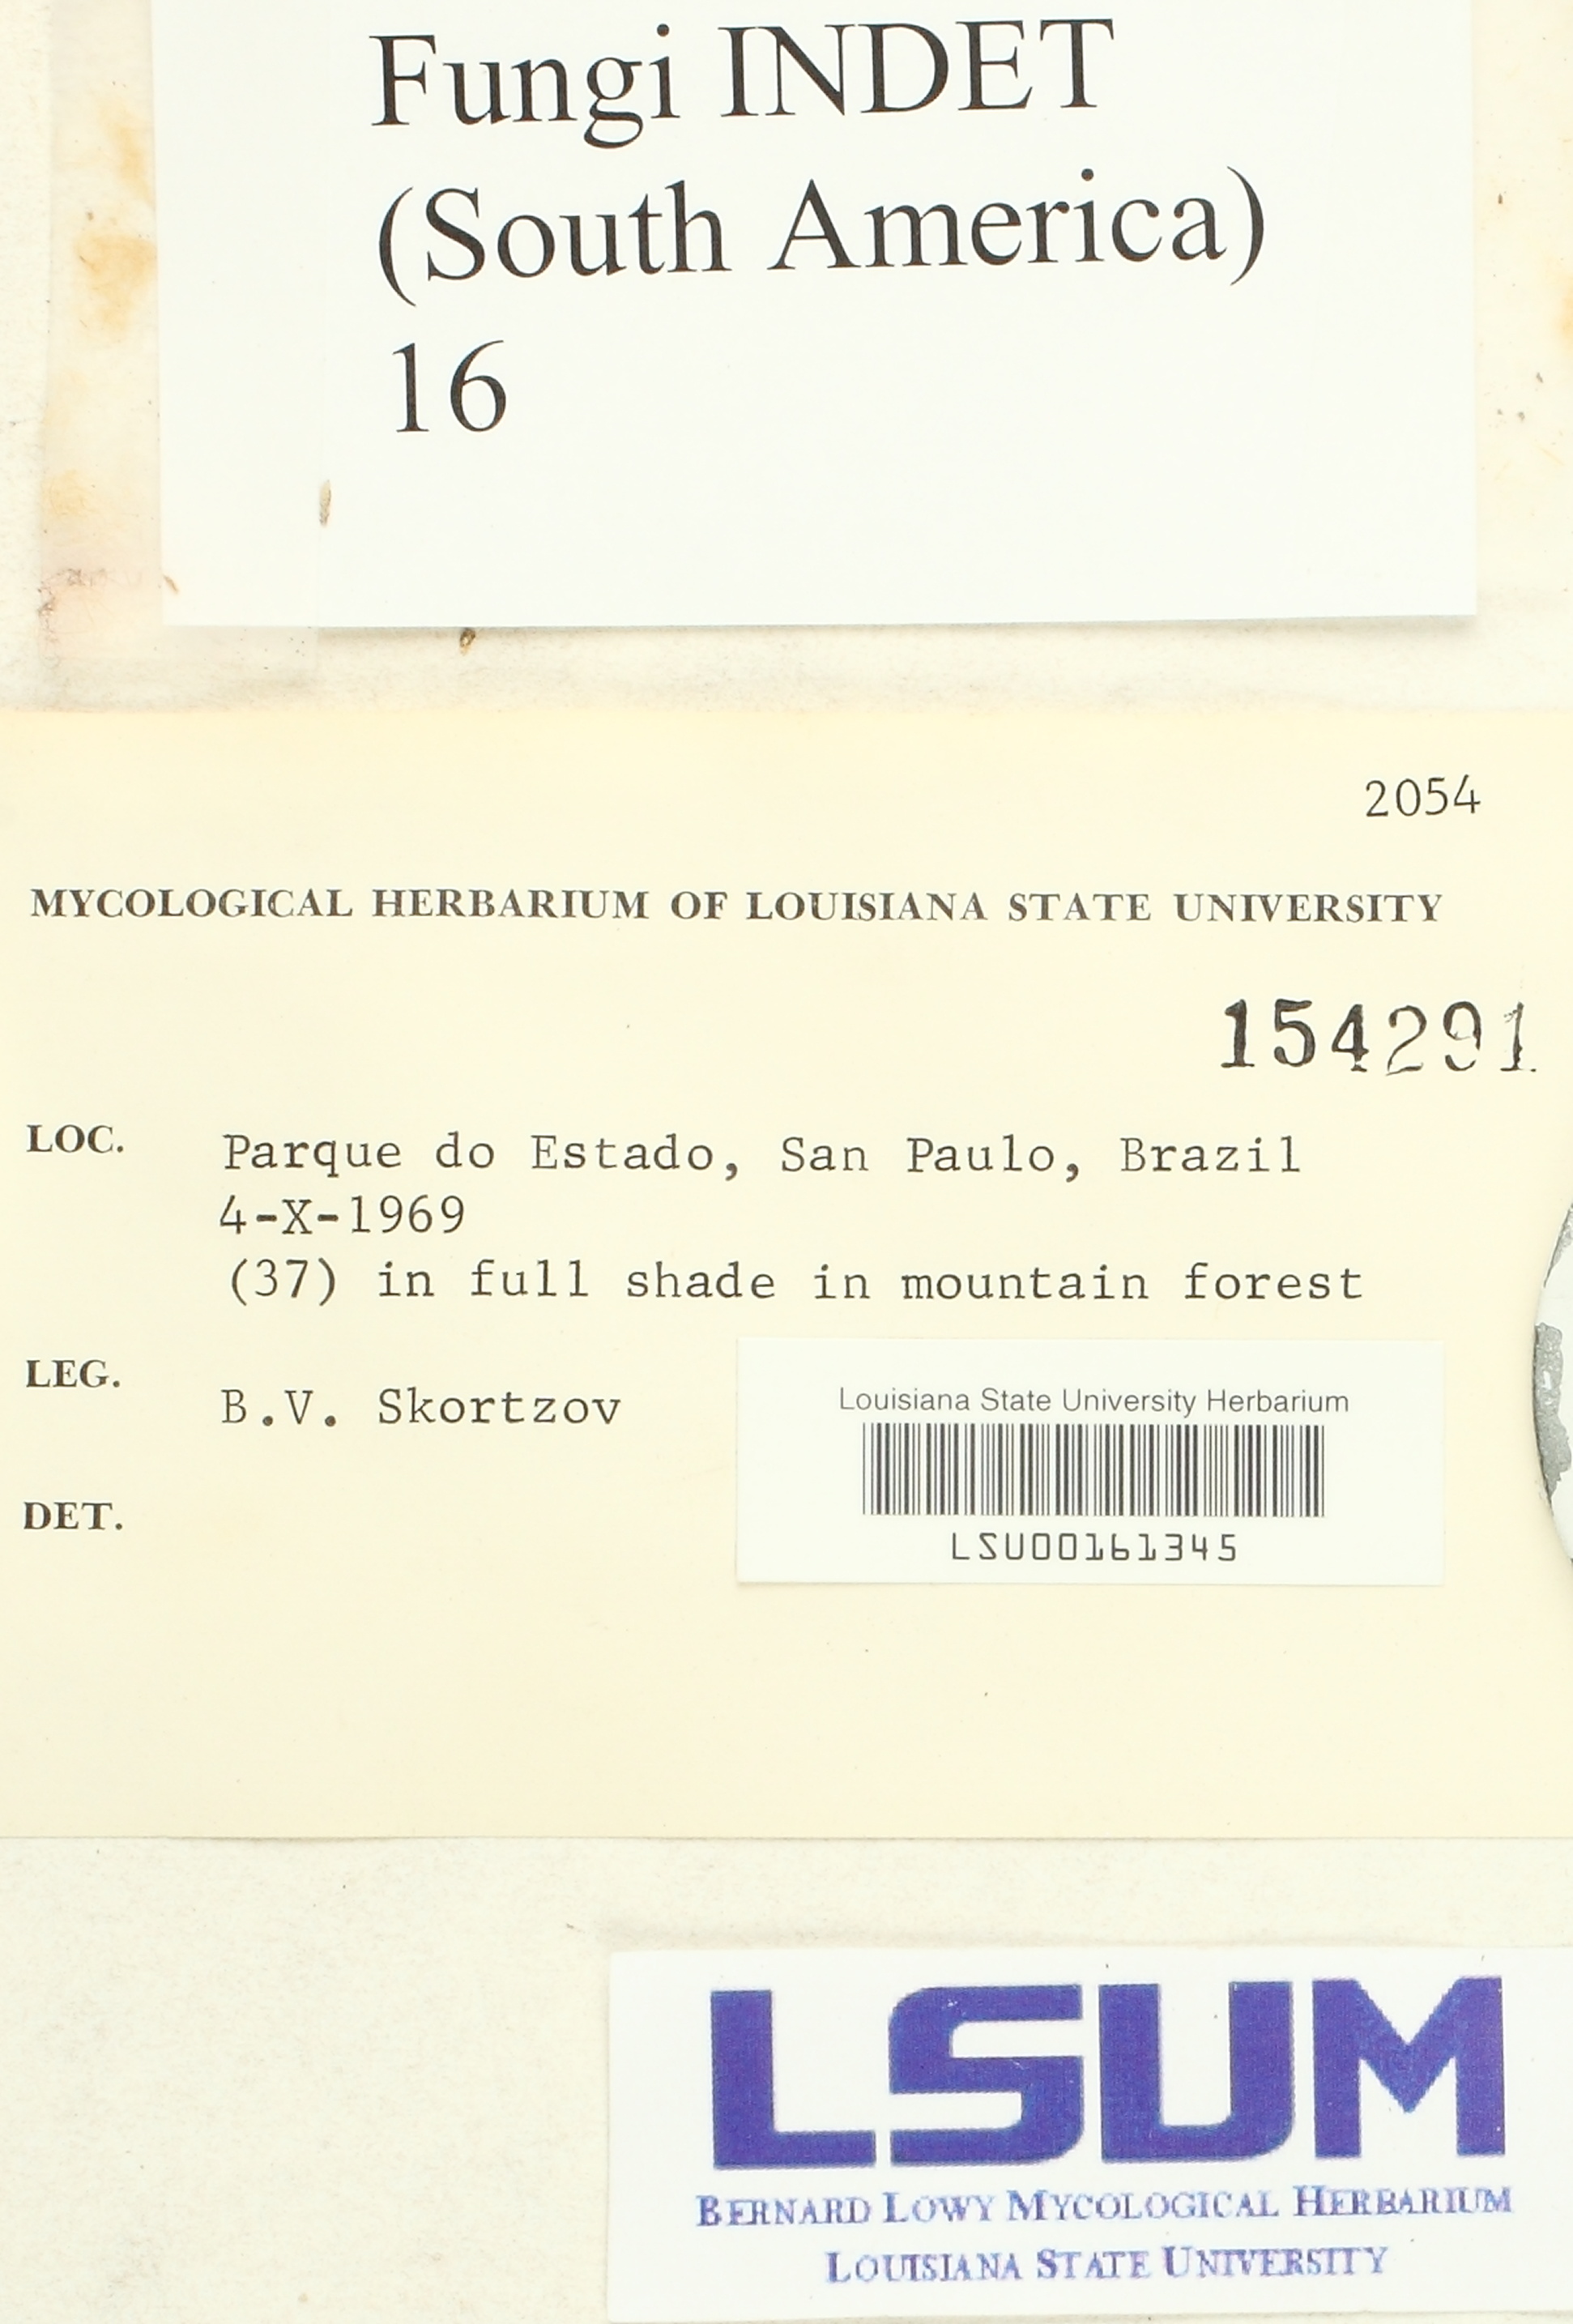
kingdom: Fungi
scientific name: Fungi
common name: Fungi
